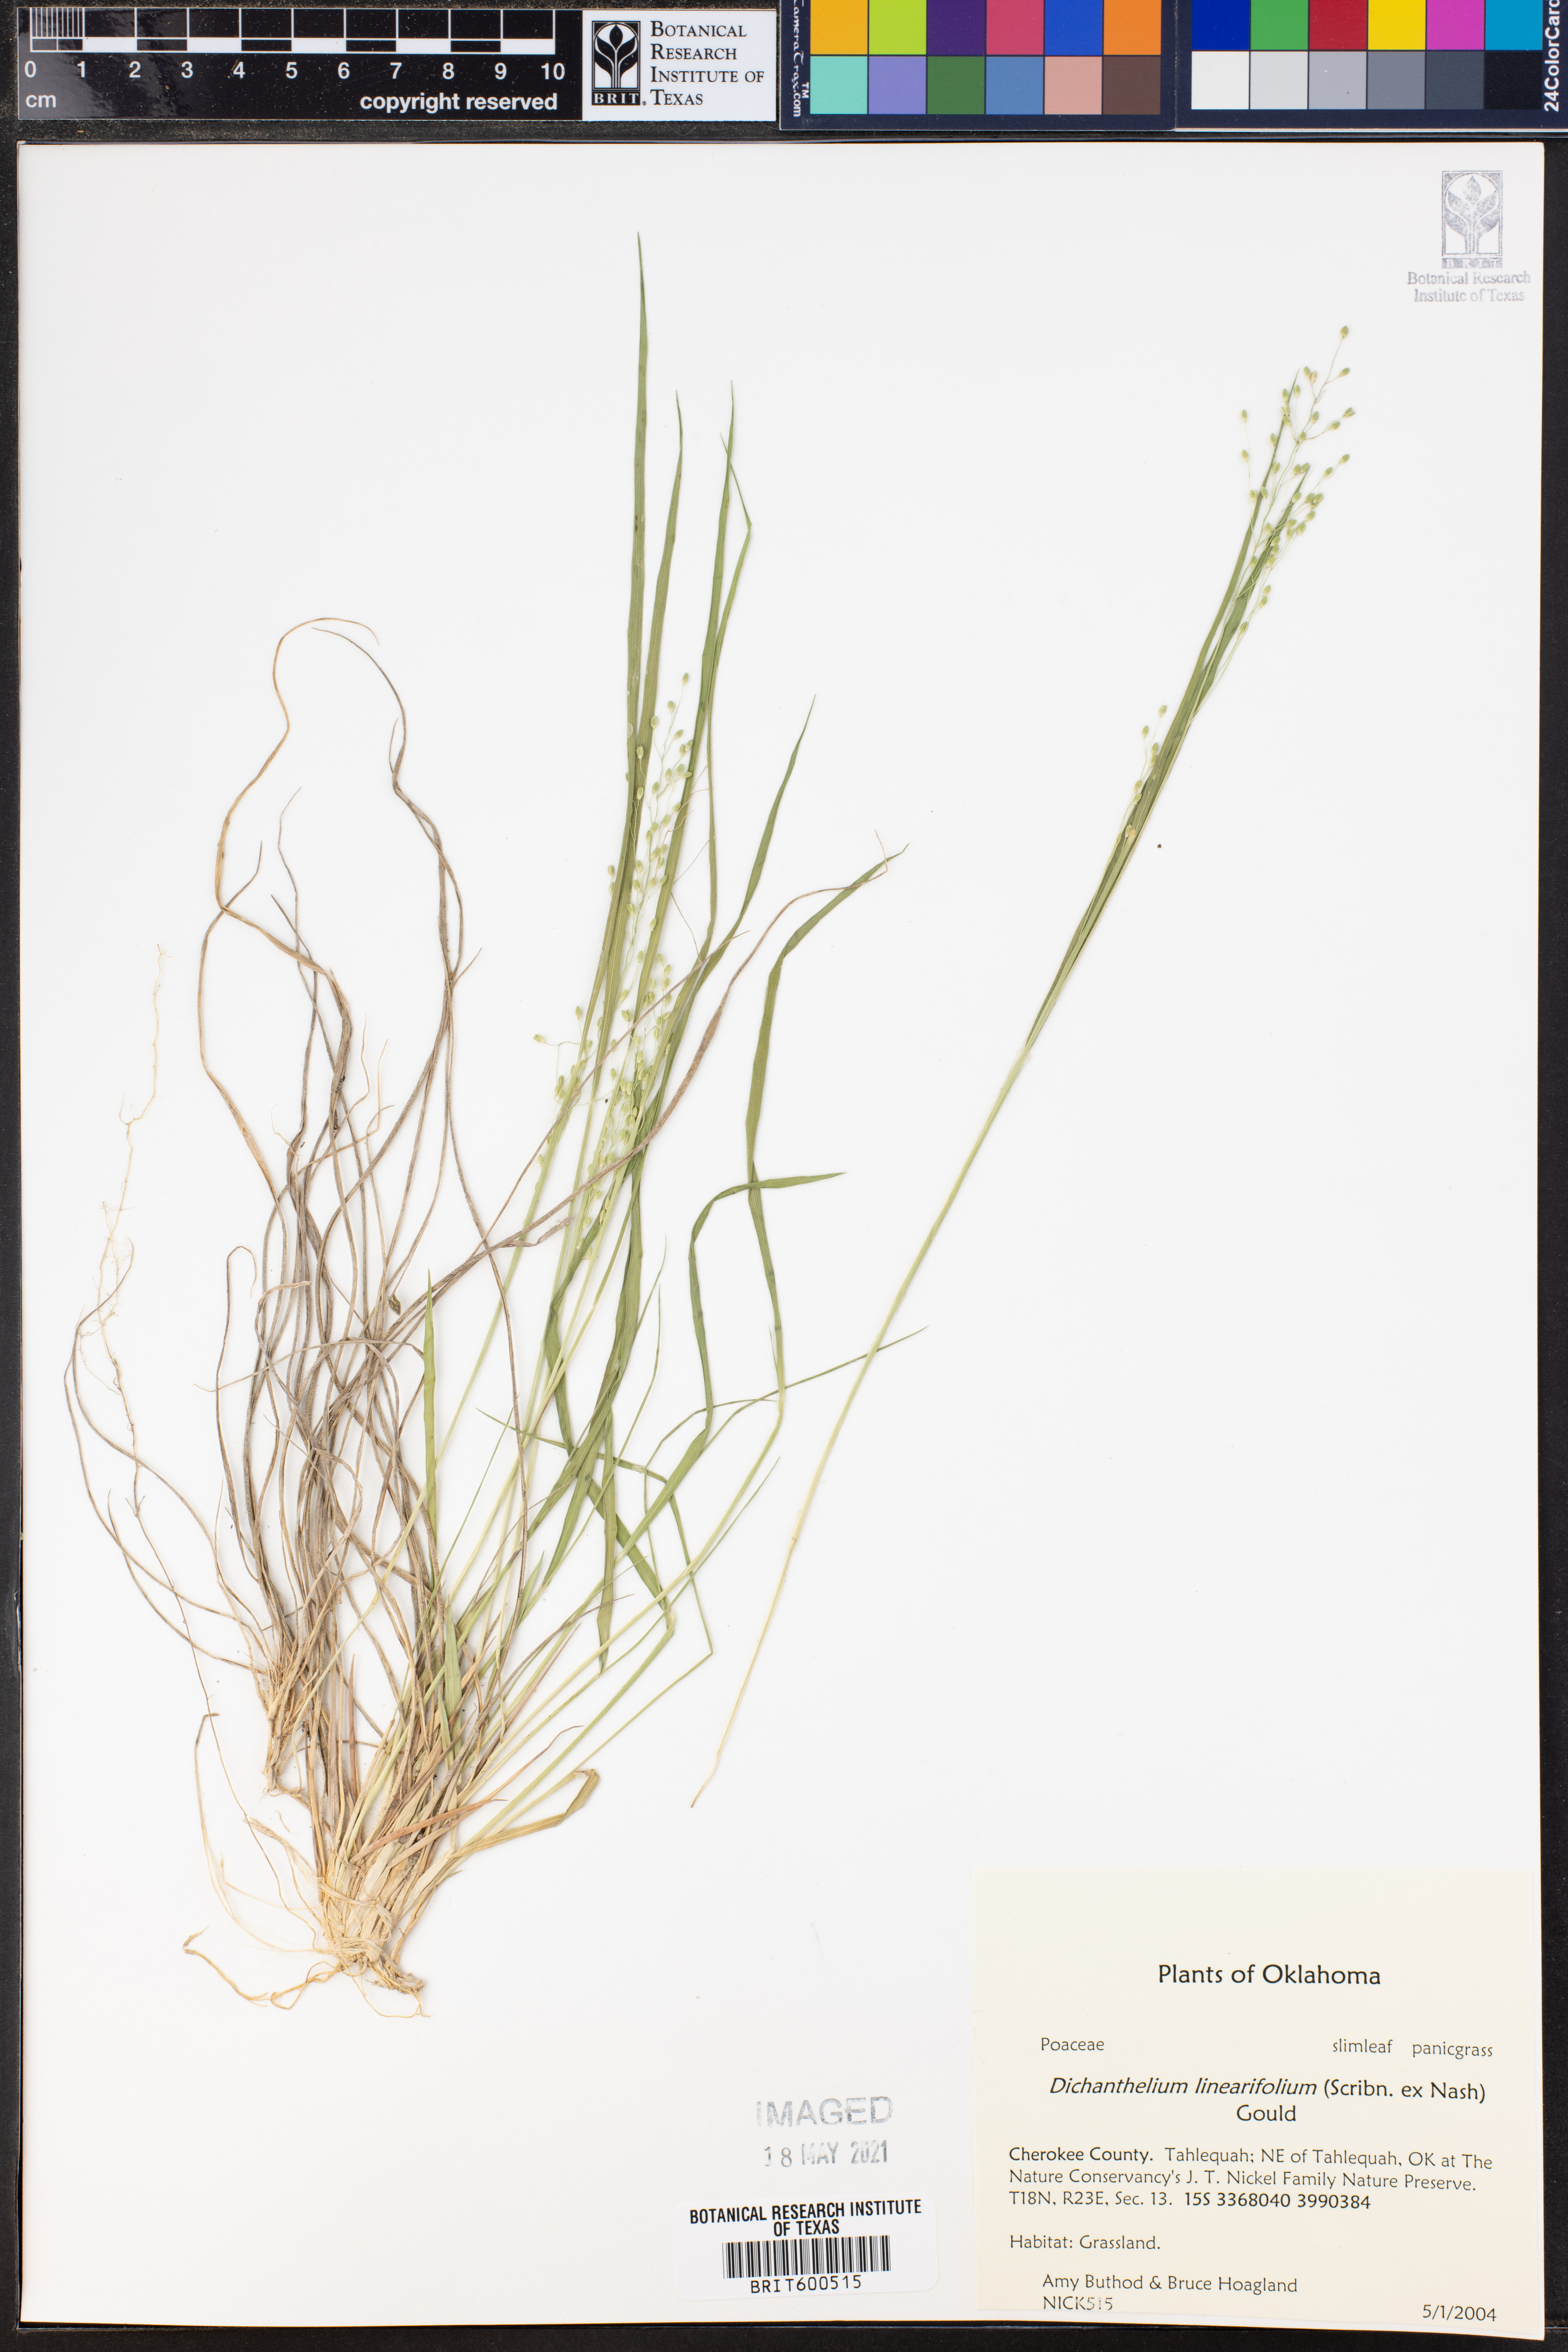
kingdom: Plantae
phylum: Tracheophyta
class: Liliopsida
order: Poales
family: Poaceae
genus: Dichanthelium
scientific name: Dichanthelium linearifolium
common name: Linear-leaved panicgrass
